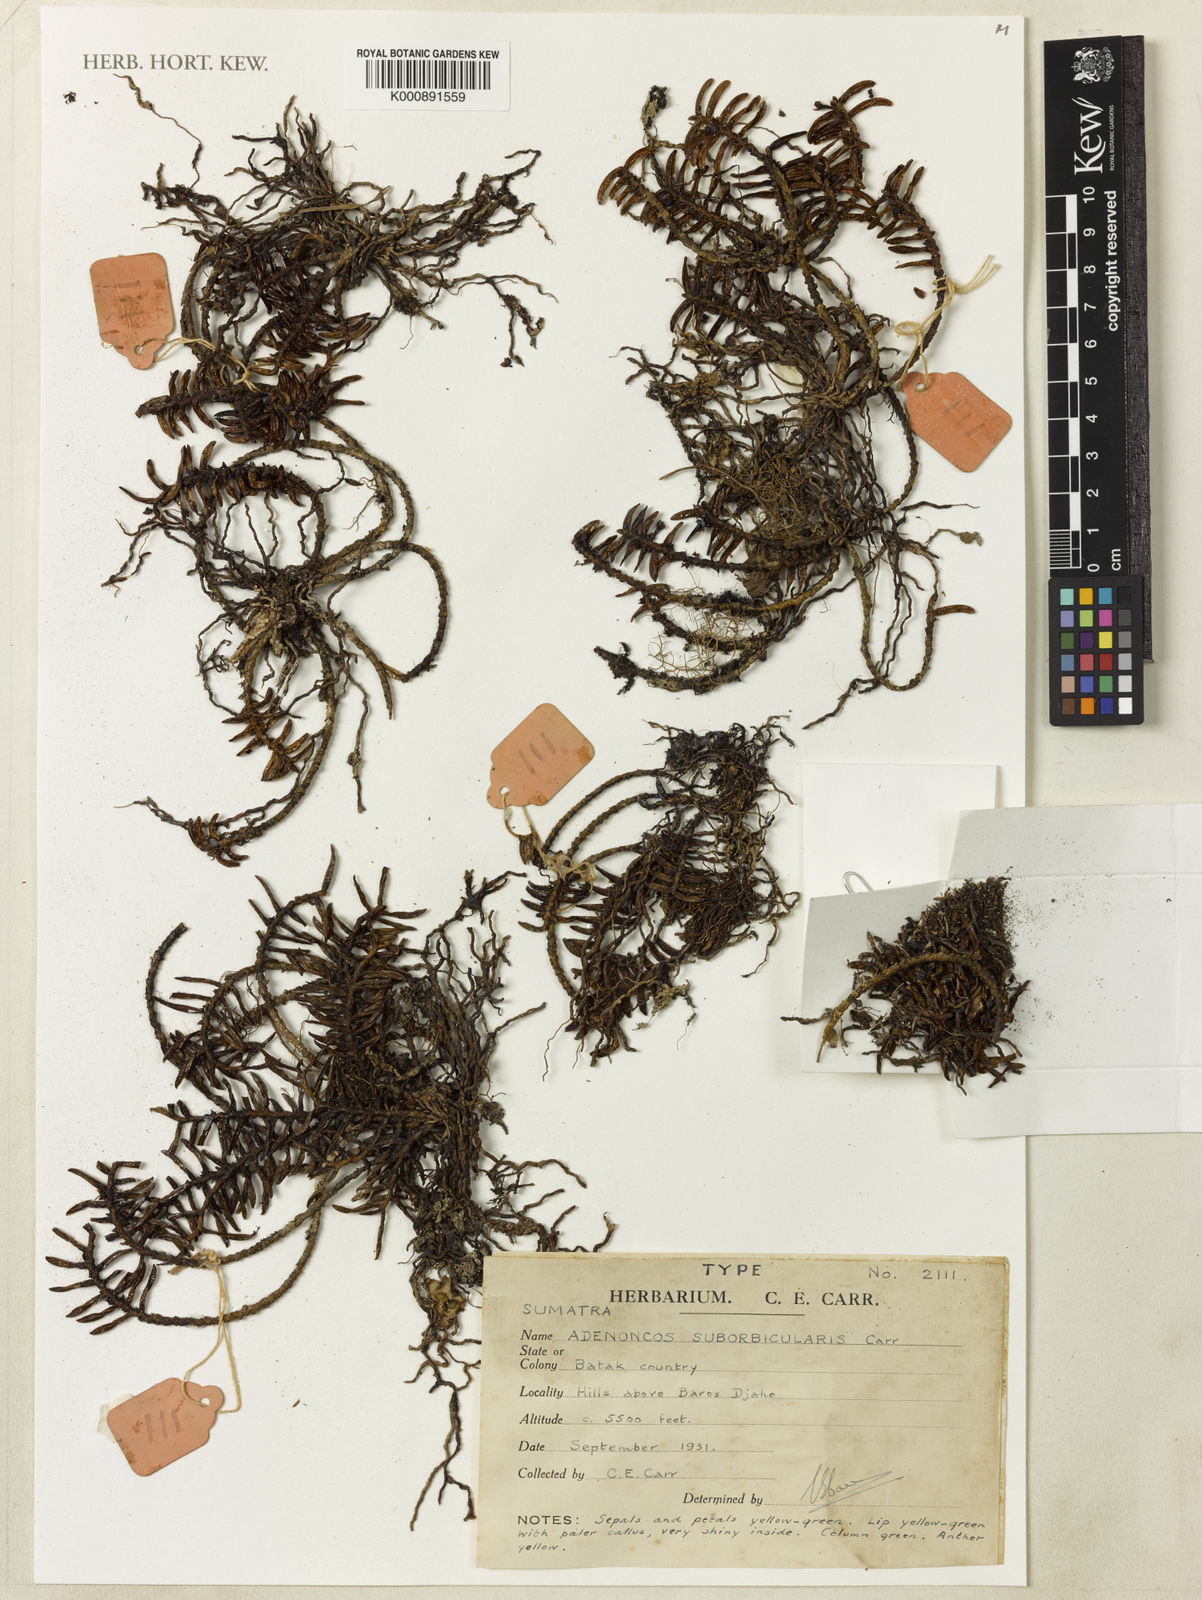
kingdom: Plantae
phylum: Tracheophyta
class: Liliopsida
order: Asparagales
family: Orchidaceae
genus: Adenoncos
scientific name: Adenoncos suborbicularis
